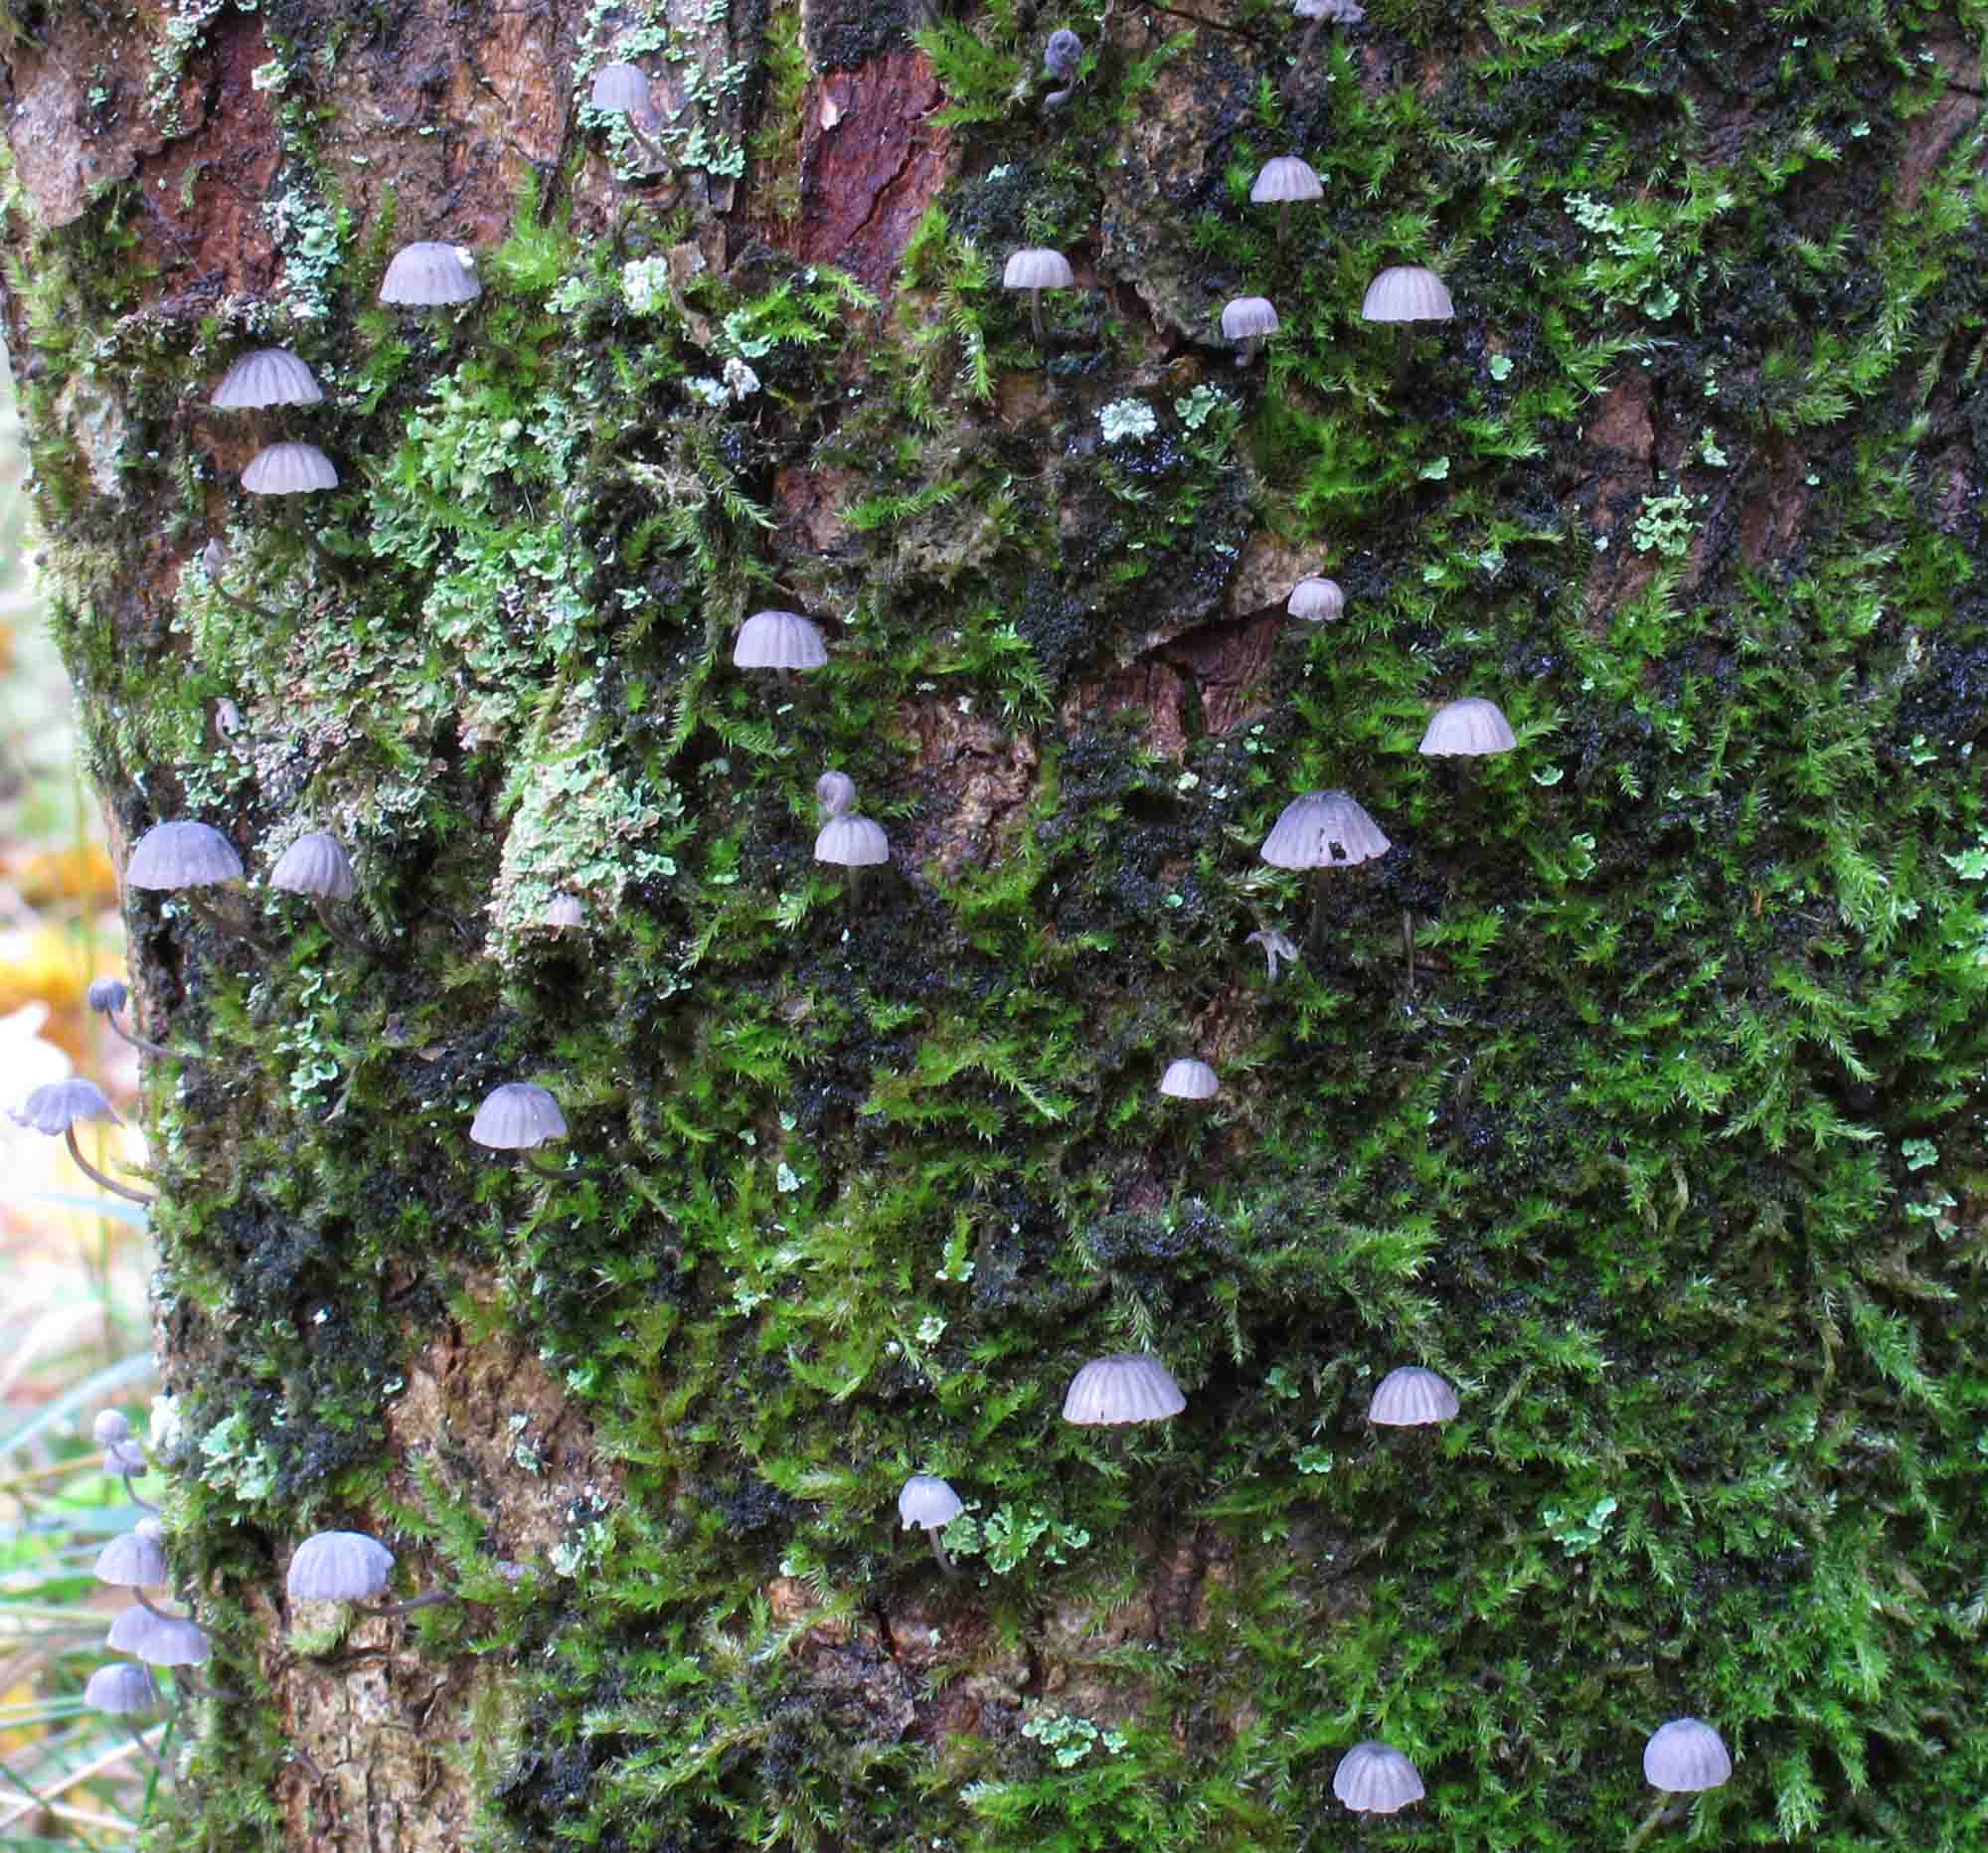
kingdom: Fungi
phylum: Basidiomycota
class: Agaricomycetes
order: Agaricales
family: Mycenaceae
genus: Mycena
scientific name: Mycena pseudocorticola
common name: gråblå bark-huesvamp
